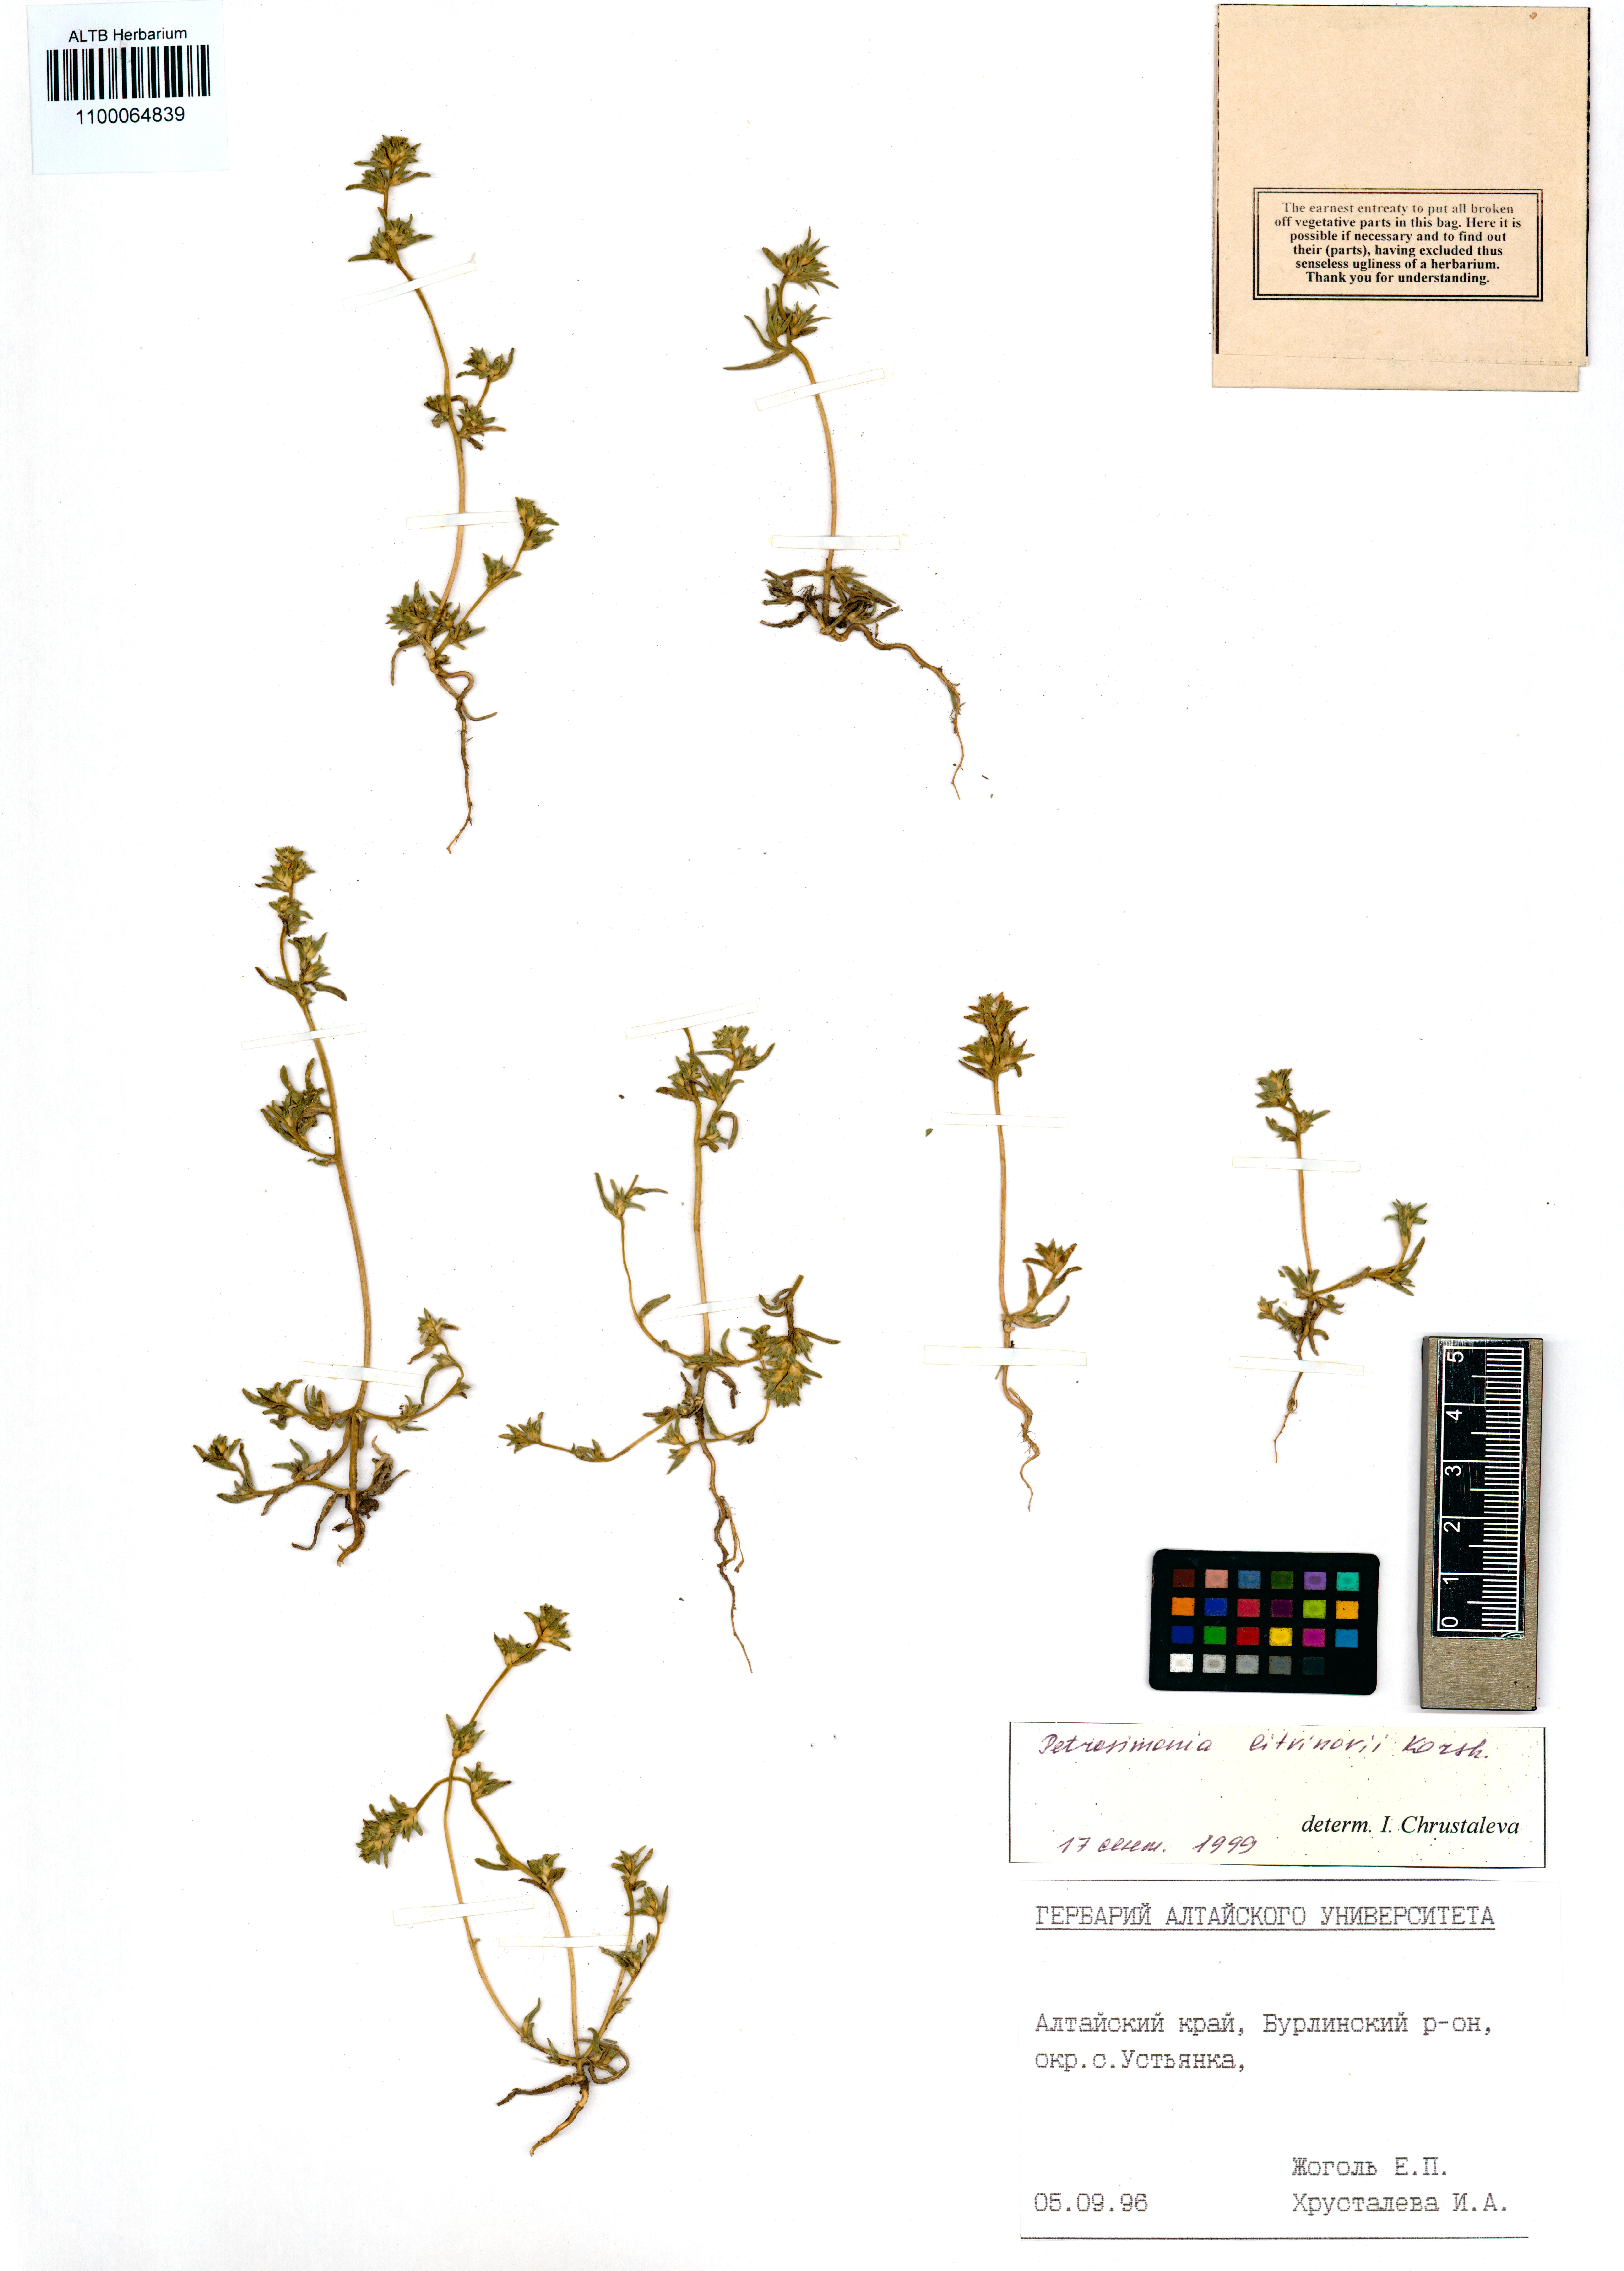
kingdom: Plantae
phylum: Tracheophyta
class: Magnoliopsida
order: Caryophyllales
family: Amaranthaceae
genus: Petrosimonia
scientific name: Petrosimonia litvinowi
